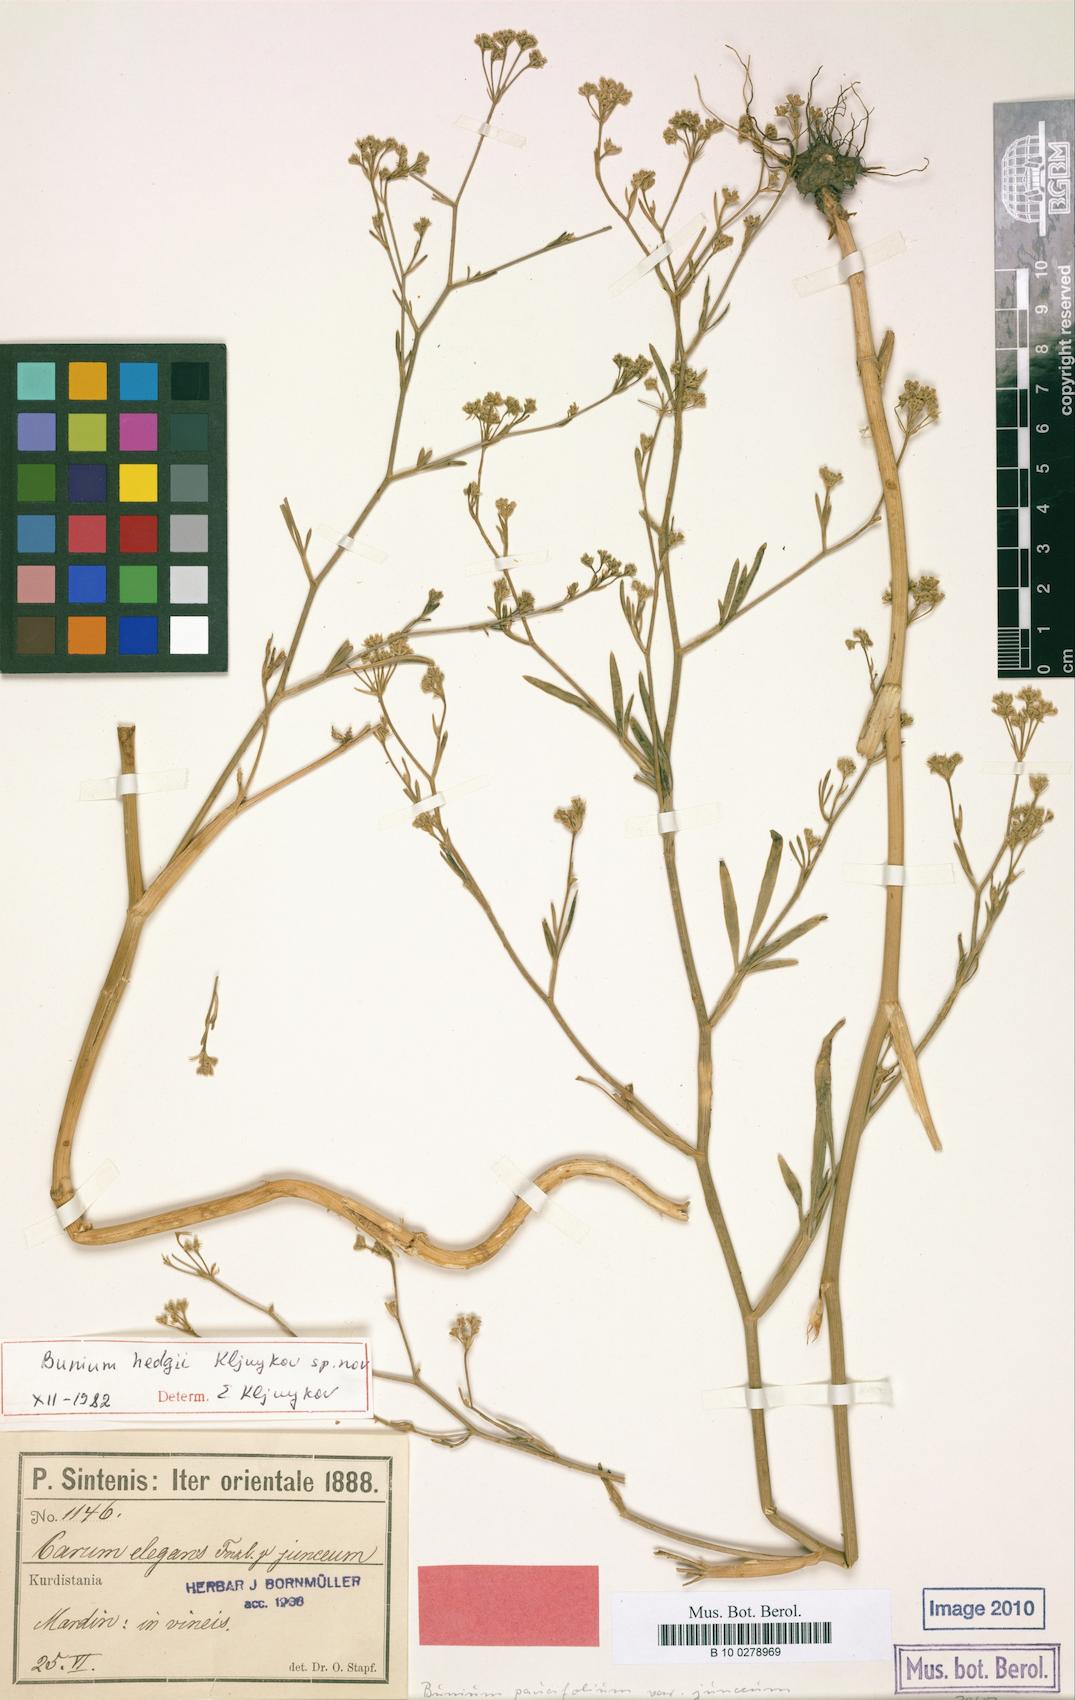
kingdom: Plantae
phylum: Tracheophyta
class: Magnoliopsida
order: Apiales
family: Apiaceae
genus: Bunium
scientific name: Bunium
